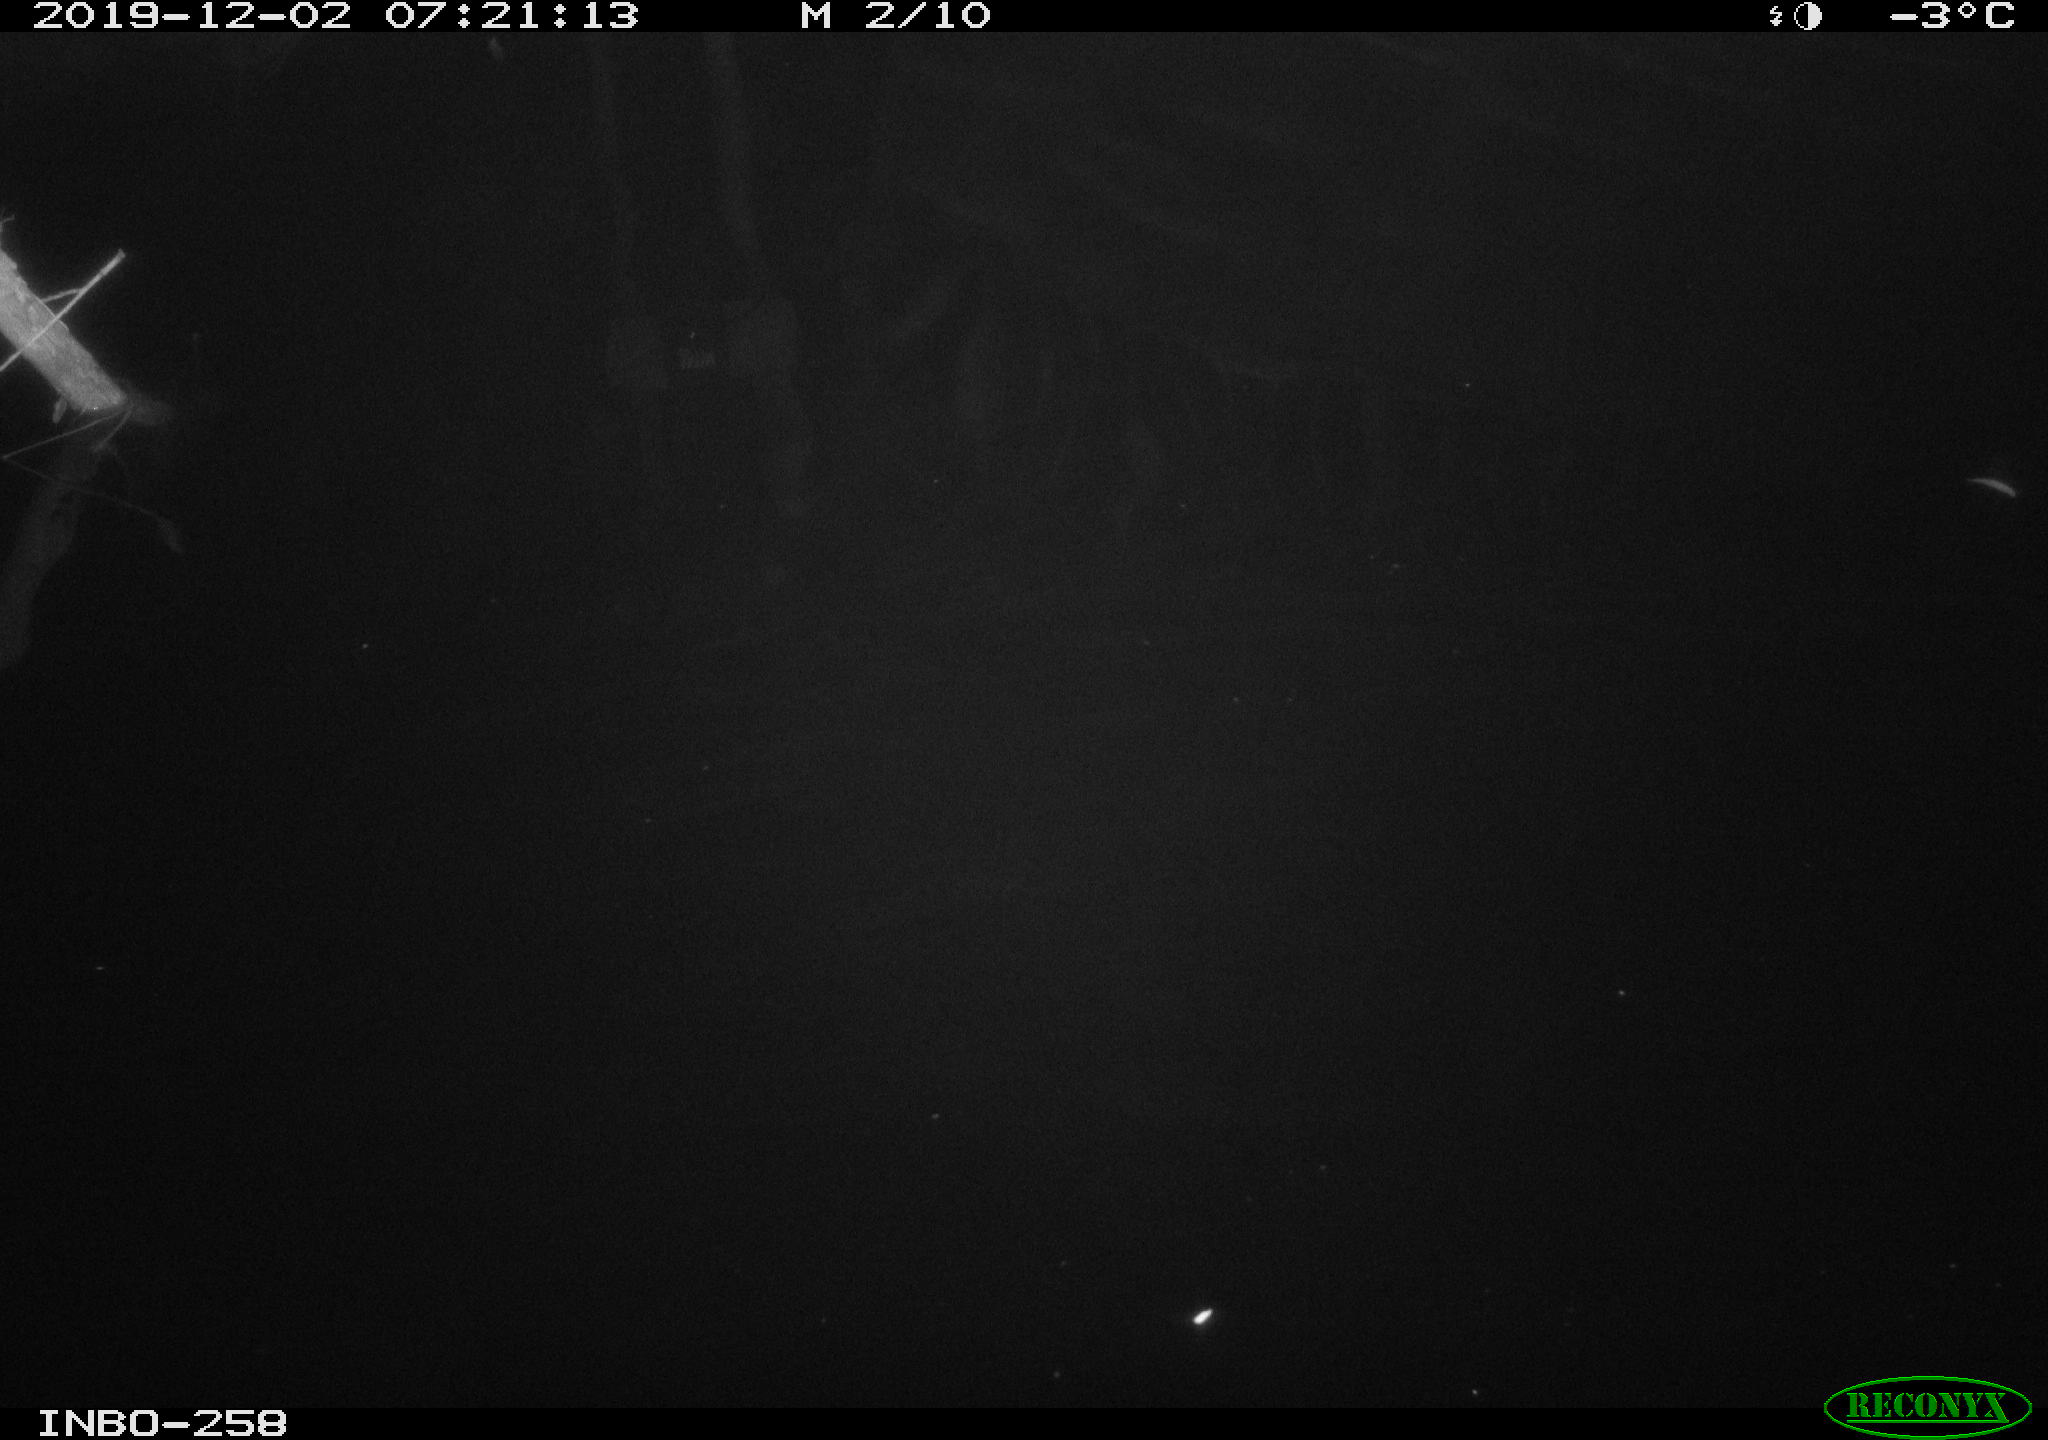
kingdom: Animalia
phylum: Chordata
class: Aves
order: Anseriformes
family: Anatidae
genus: Anas
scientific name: Anas platyrhynchos
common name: Mallard
